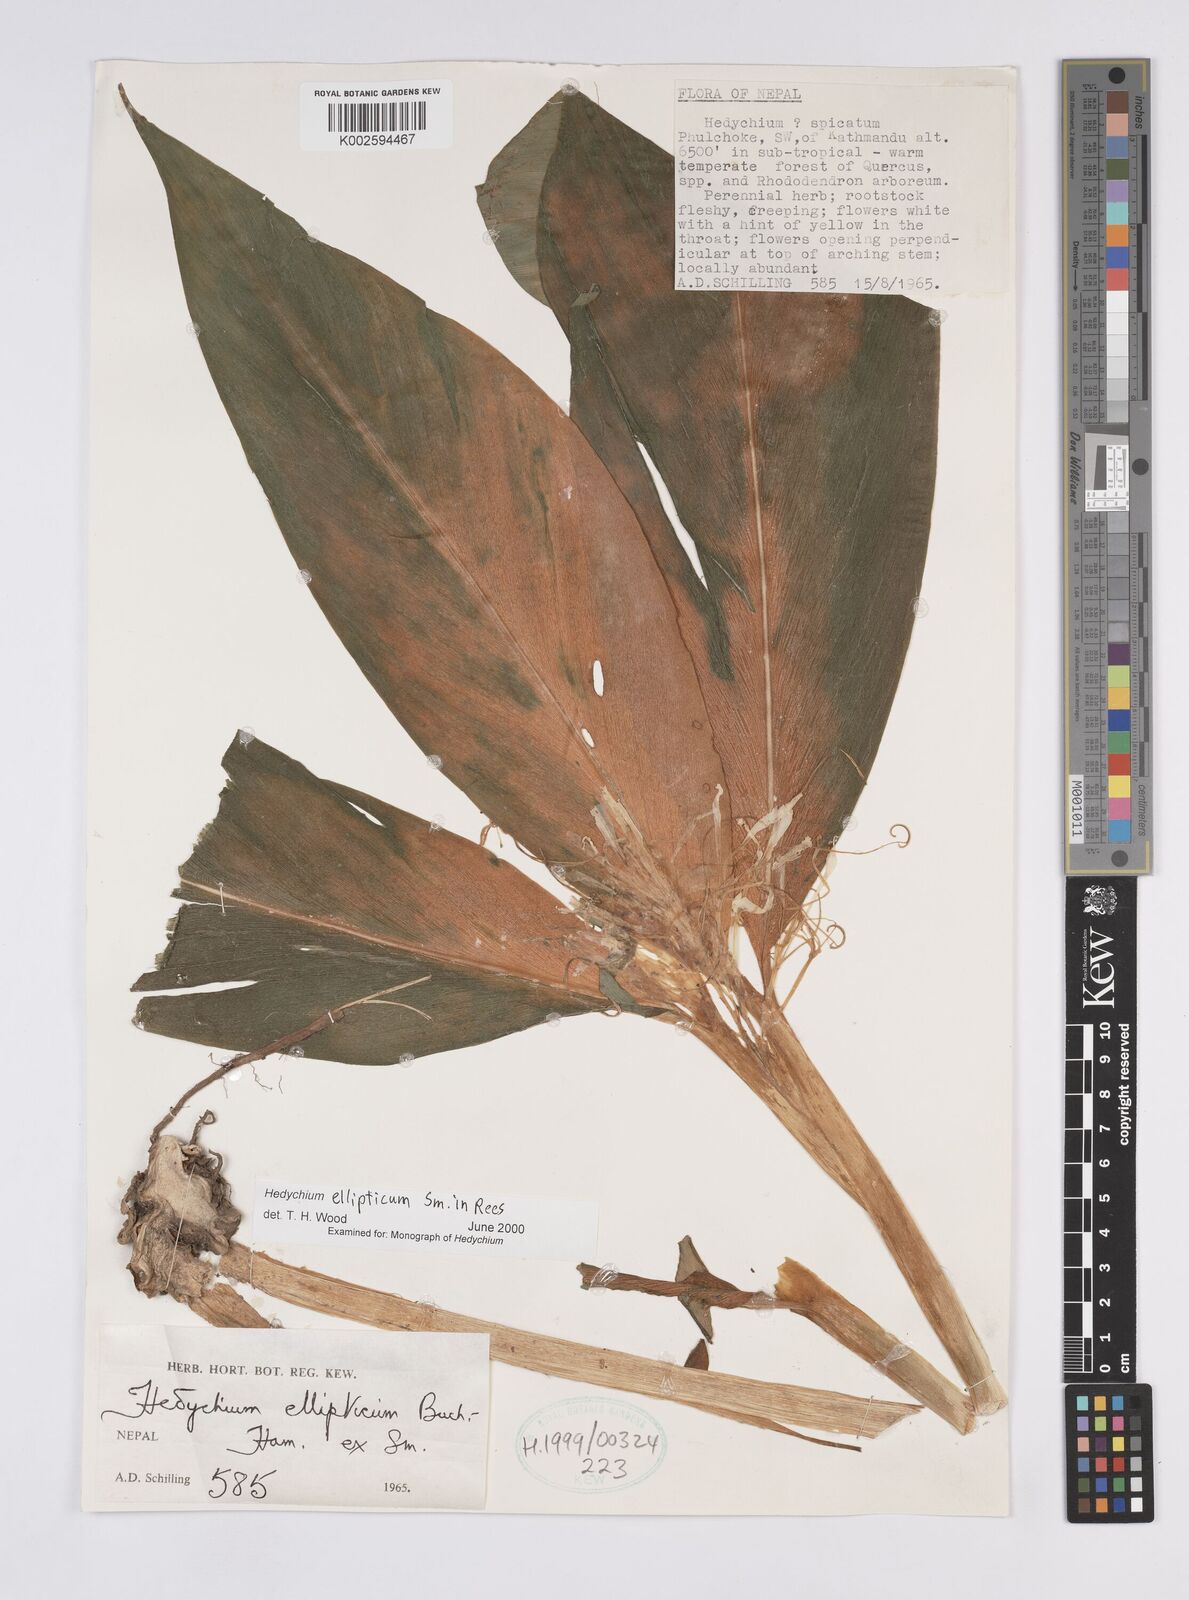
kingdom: Plantae
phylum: Tracheophyta
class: Liliopsida
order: Zingiberales
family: Zingiberaceae
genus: Hedychium
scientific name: Hedychium ellipticum
